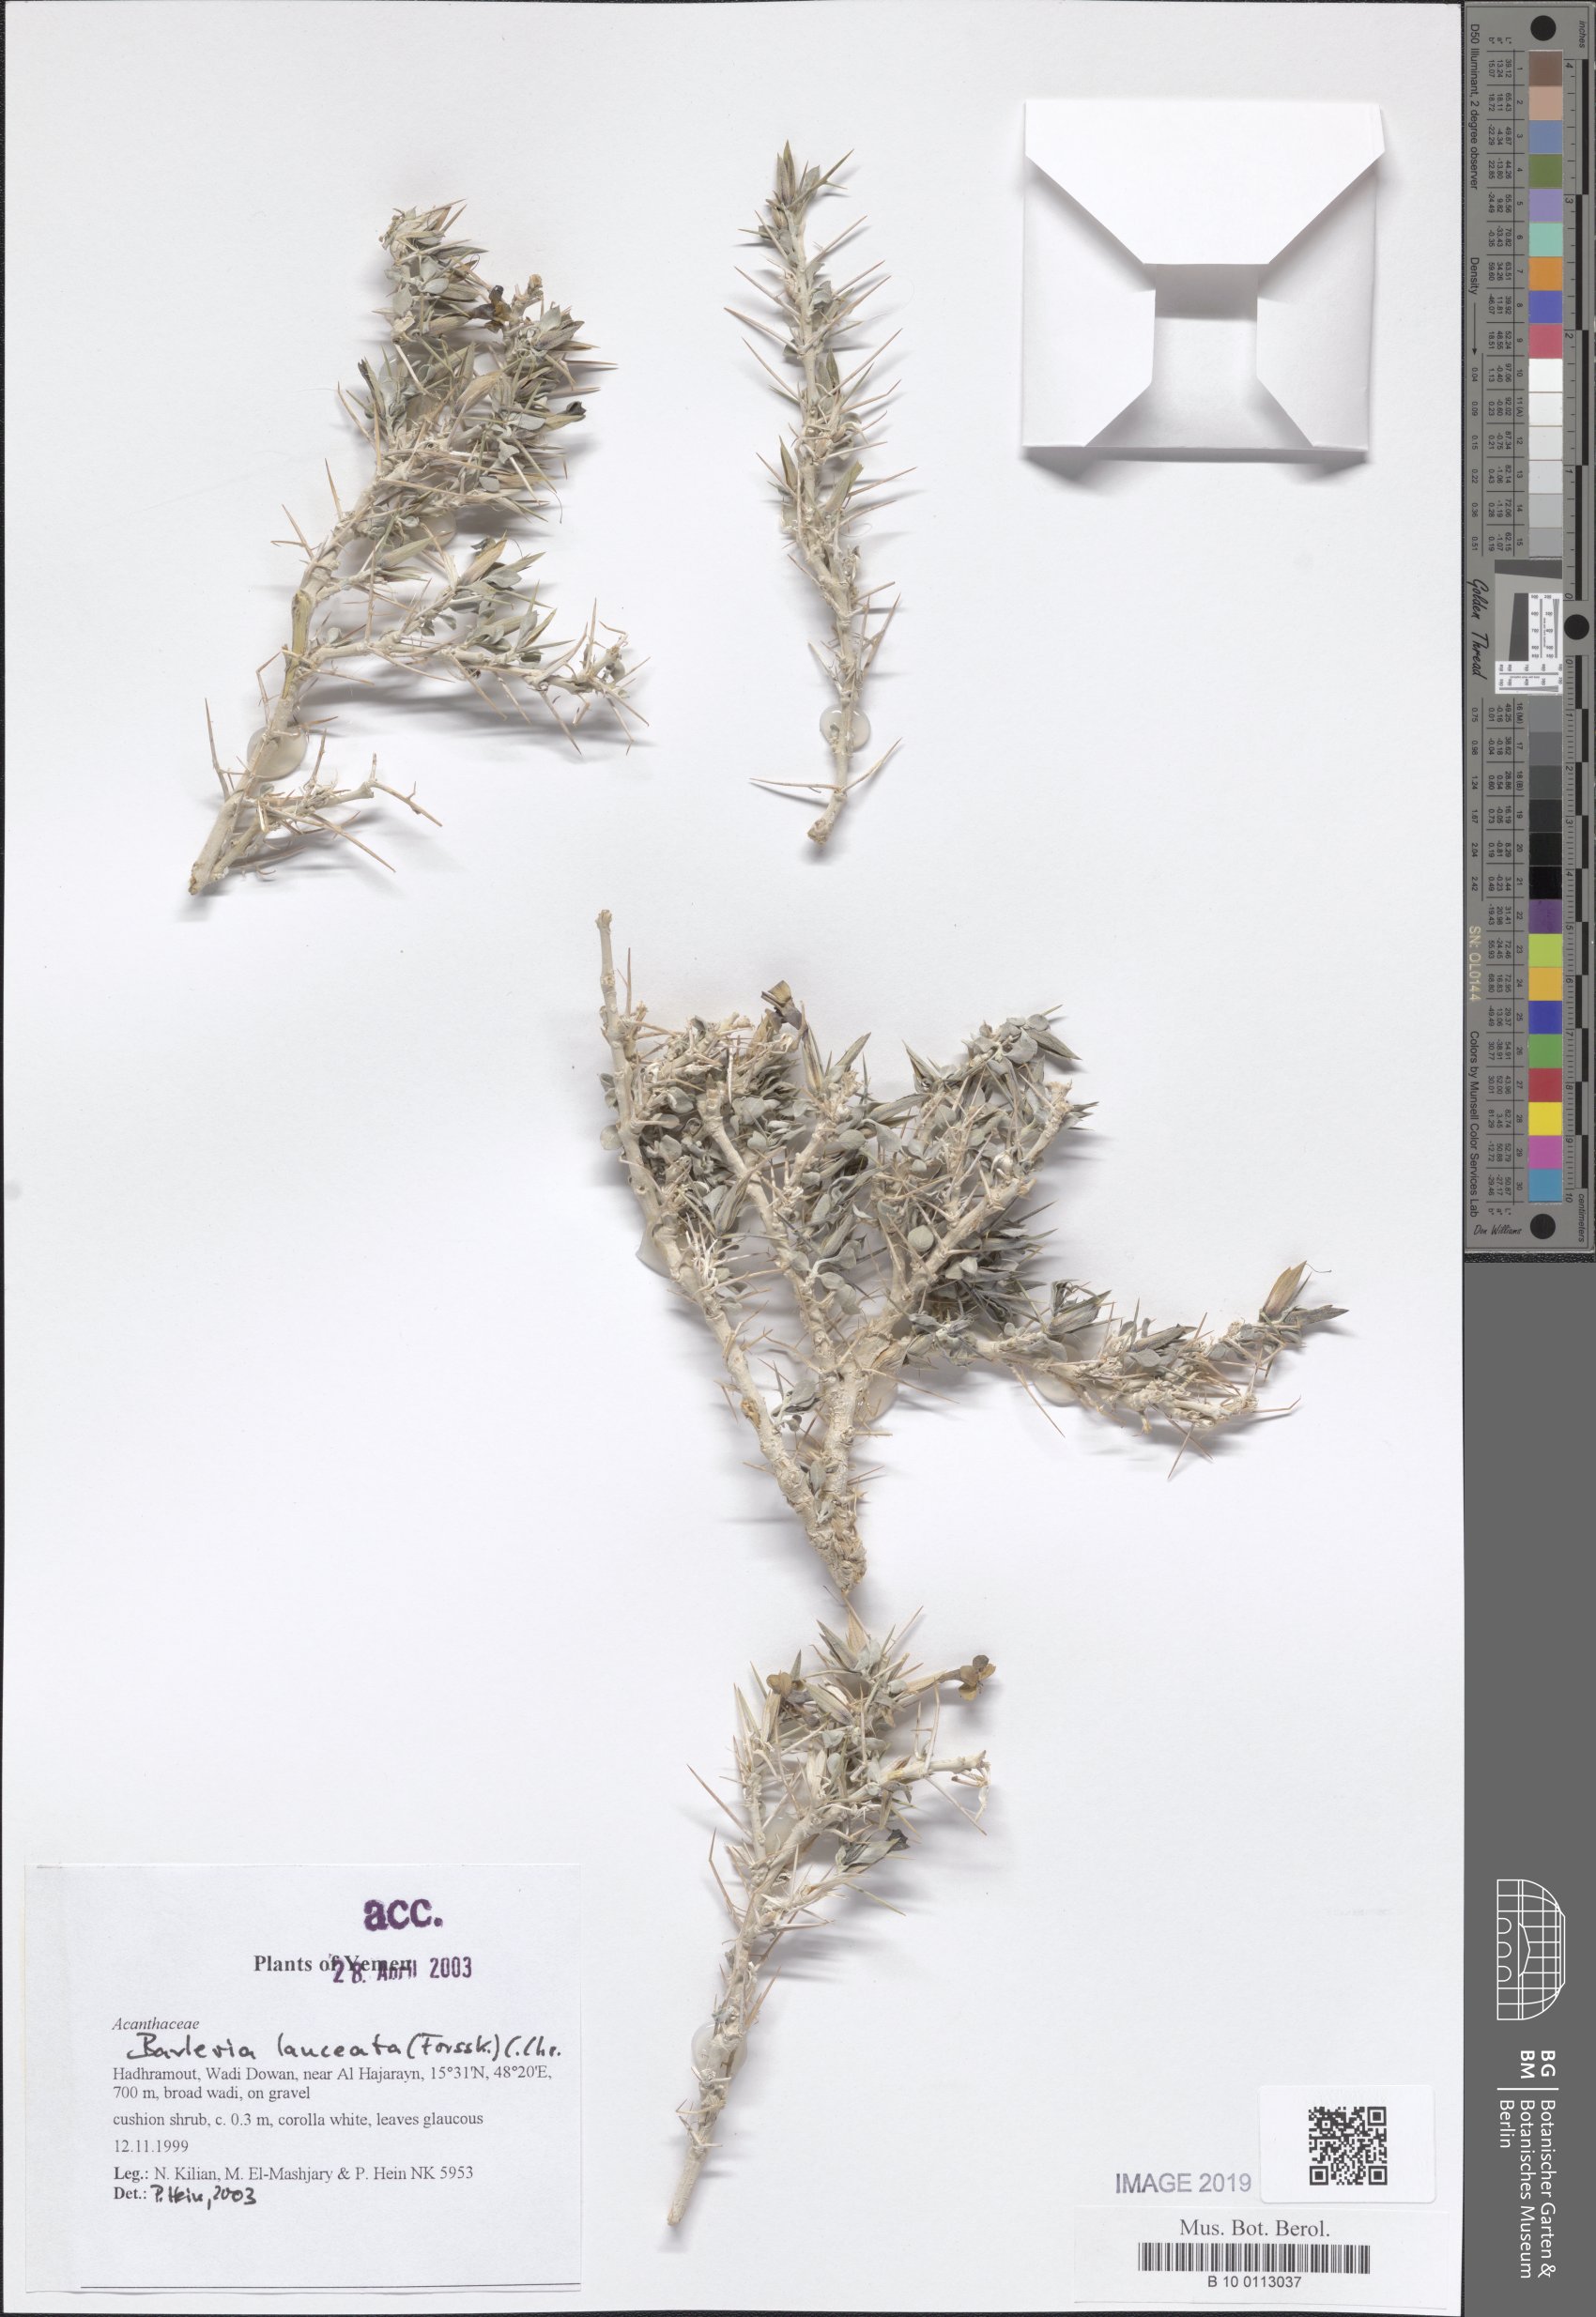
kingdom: Plantae
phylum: Tracheophyta
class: Magnoliopsida
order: Lamiales
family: Acanthaceae
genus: Barleria
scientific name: Barleria lanceata
